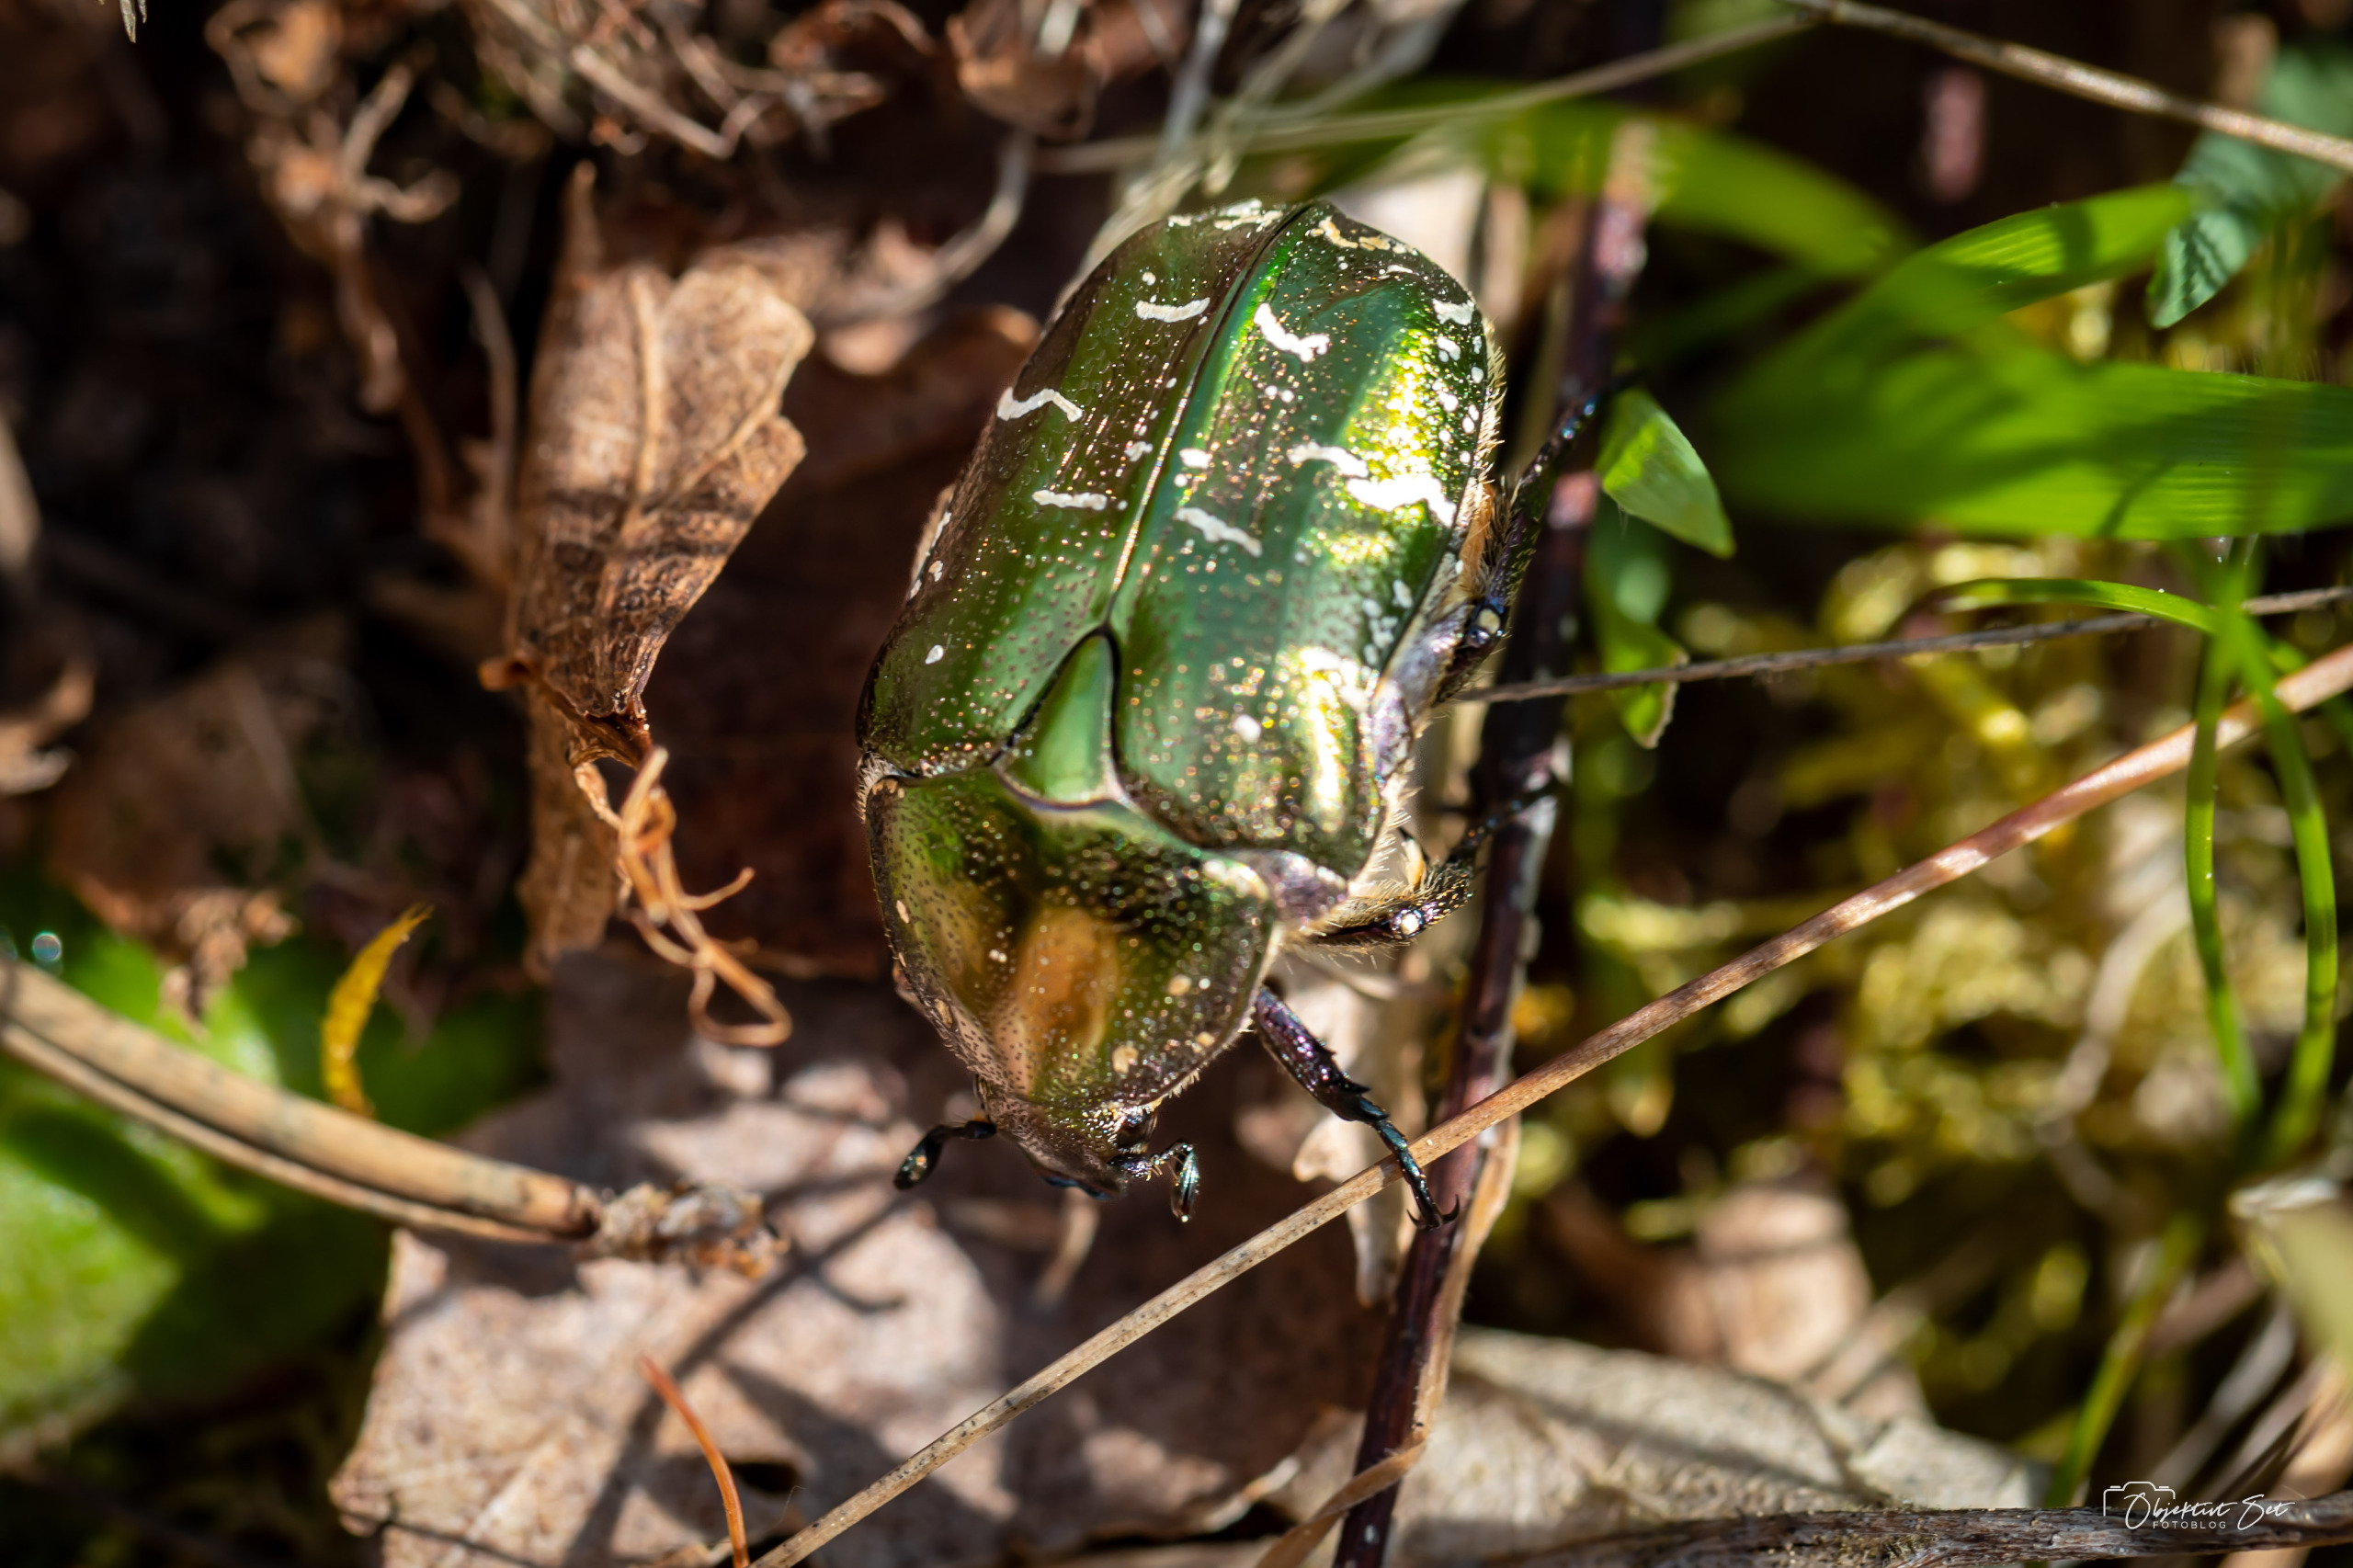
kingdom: Animalia
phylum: Arthropoda
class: Insecta
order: Coleoptera
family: Scarabaeidae
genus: Protaetia
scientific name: Protaetia cuprea
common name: Kobberguldbasse
